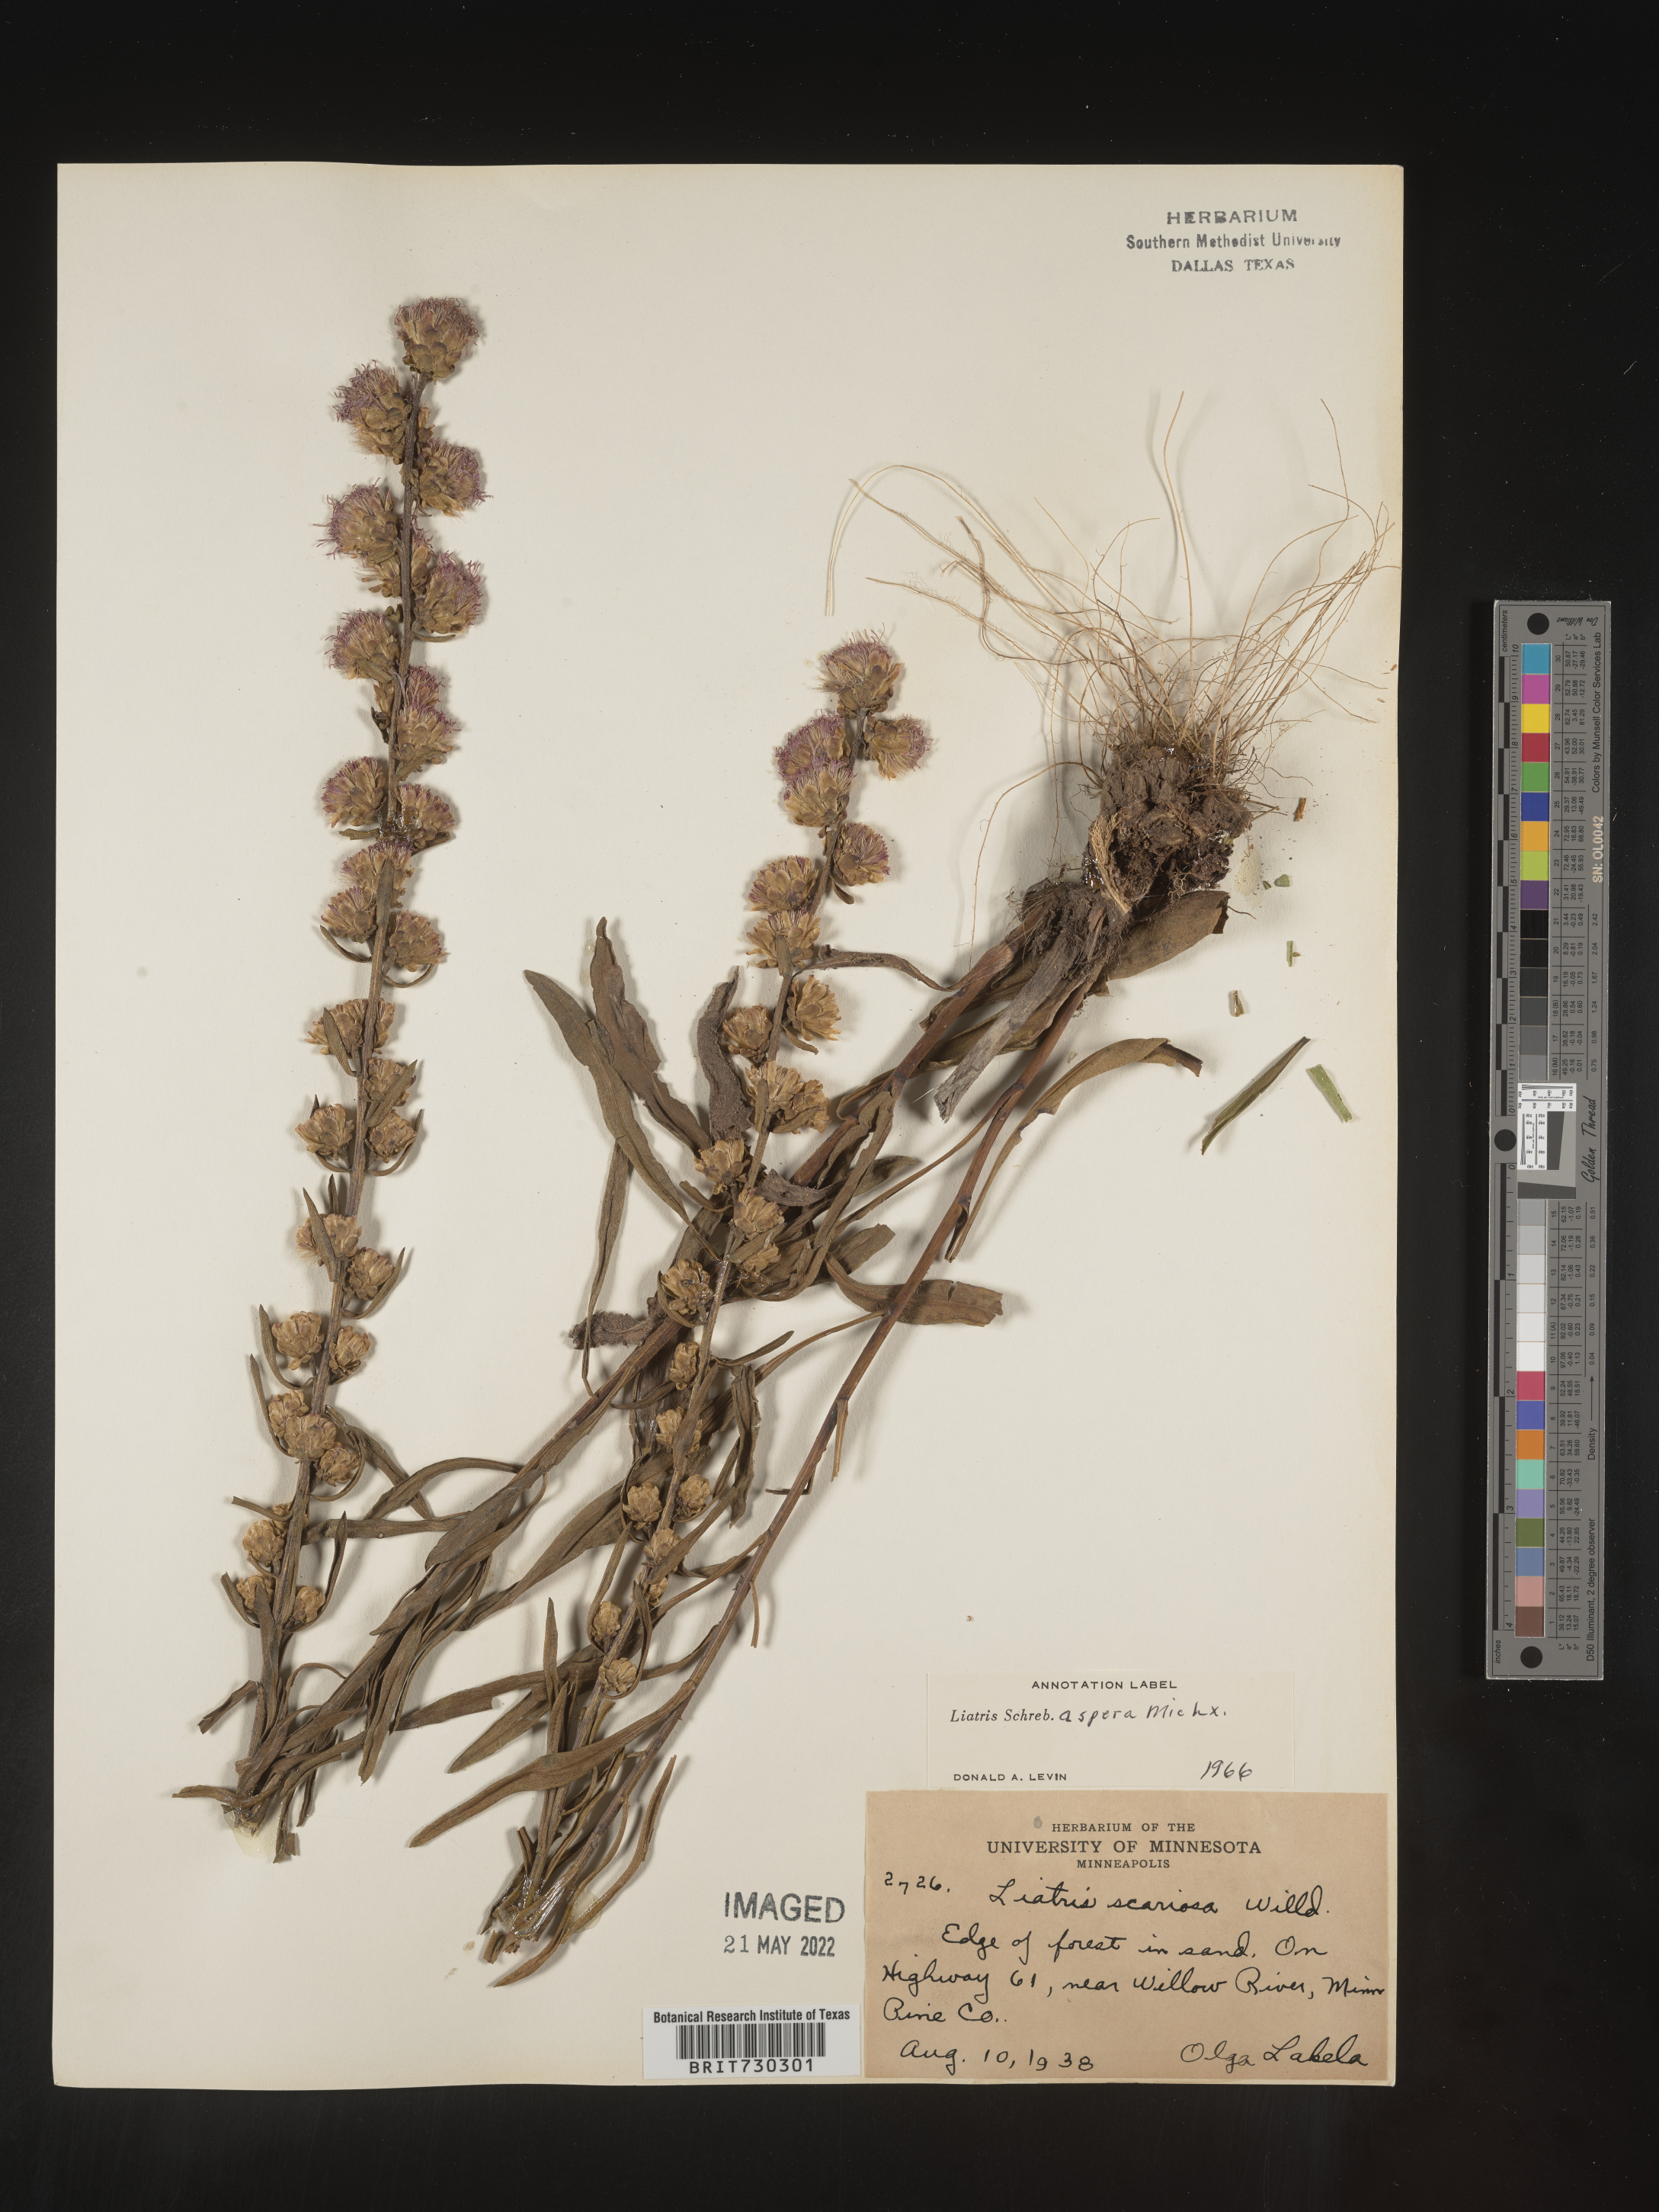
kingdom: Plantae
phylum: Tracheophyta
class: Magnoliopsida
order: Asterales
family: Asteraceae
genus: Liatris
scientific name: Liatris aspera
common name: Lacerate blazing-star
